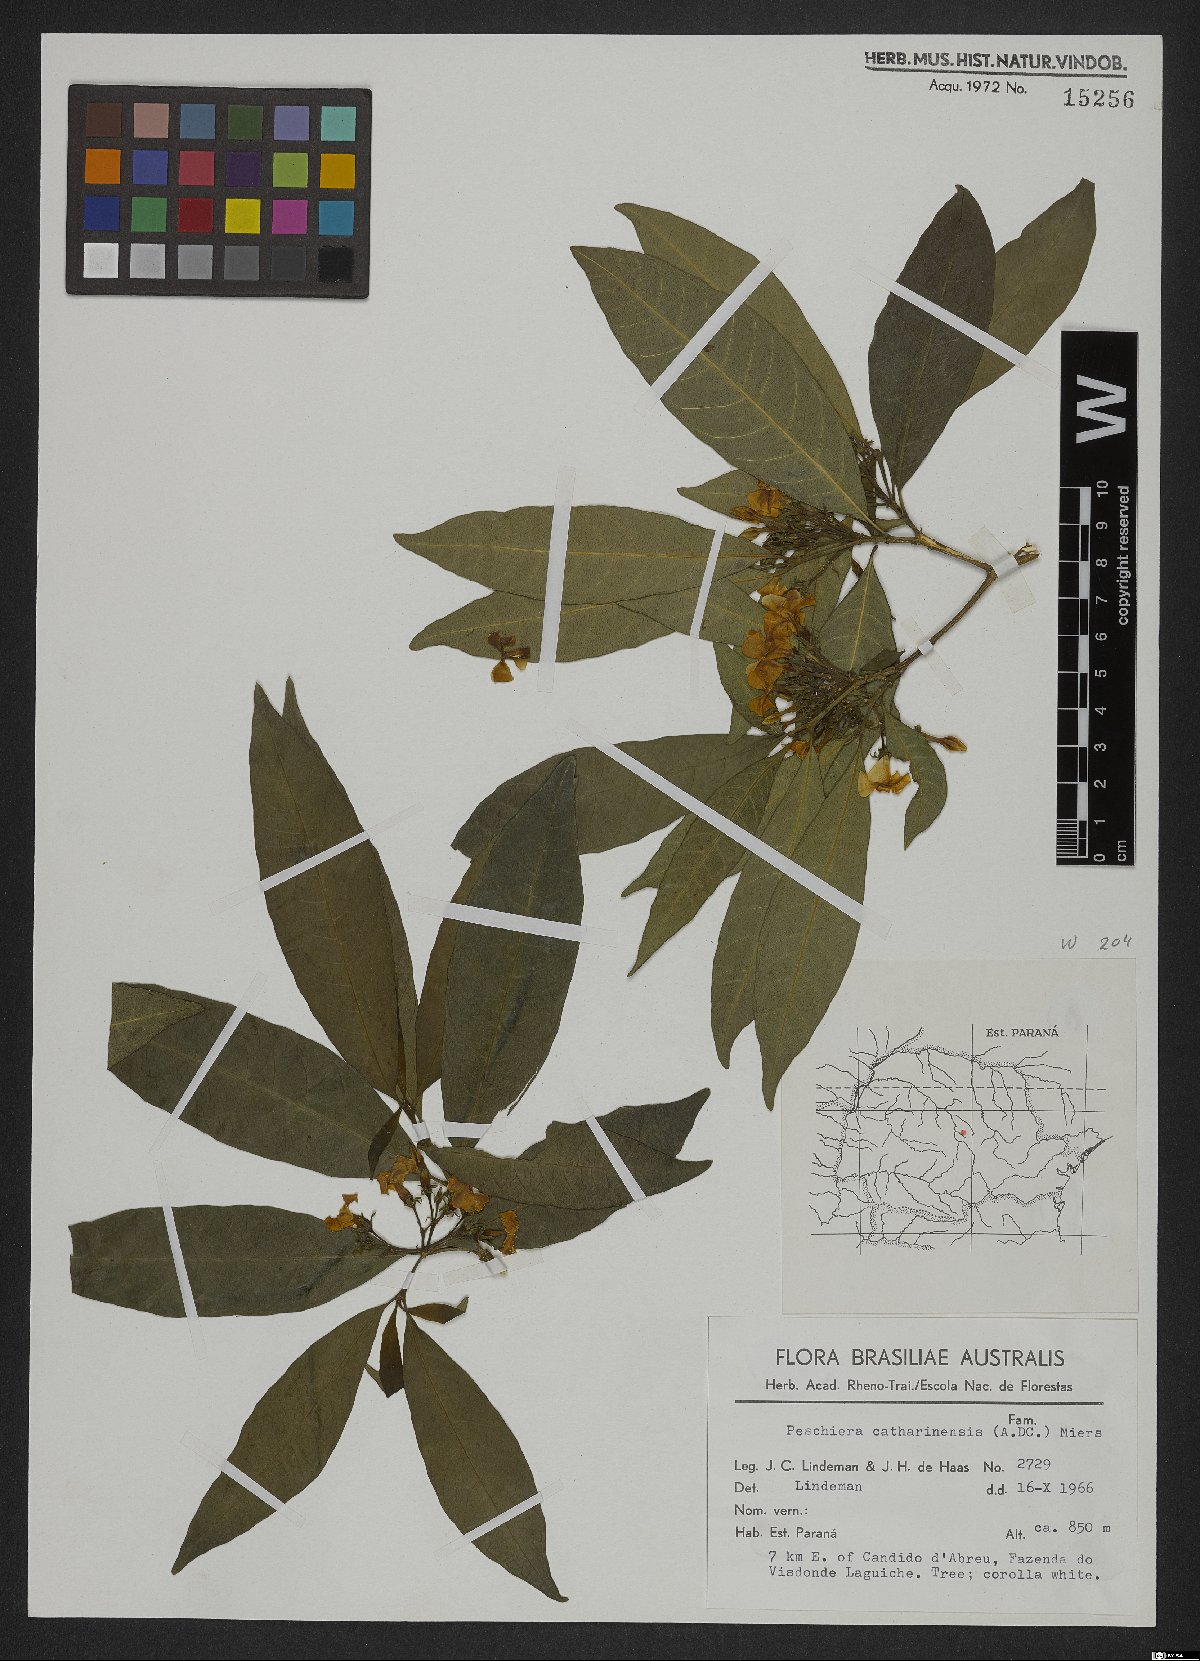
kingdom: Plantae
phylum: Tracheophyta
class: Magnoliopsida
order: Gentianales
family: Apocynaceae
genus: Tabernaemontana
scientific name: Tabernaemontana catharinensis
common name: Pinwheel-flower
